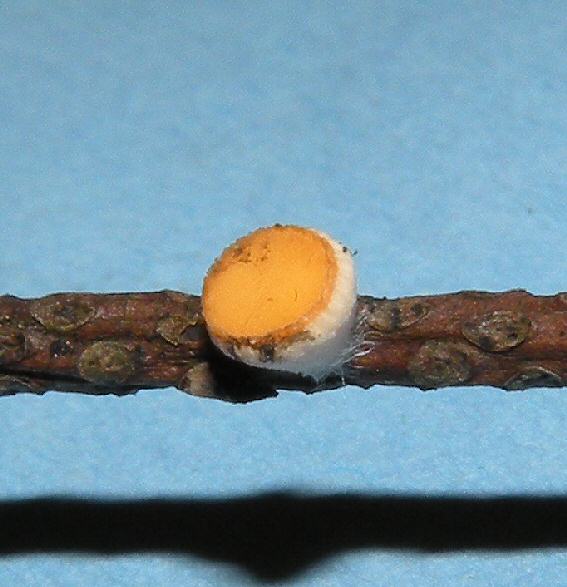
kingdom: Fungi
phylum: Ascomycota
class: Pezizomycetes
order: Pezizales
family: Sarcoscyphaceae
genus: Pithya
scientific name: Pithya vulgaris
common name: stor dukatbæger
